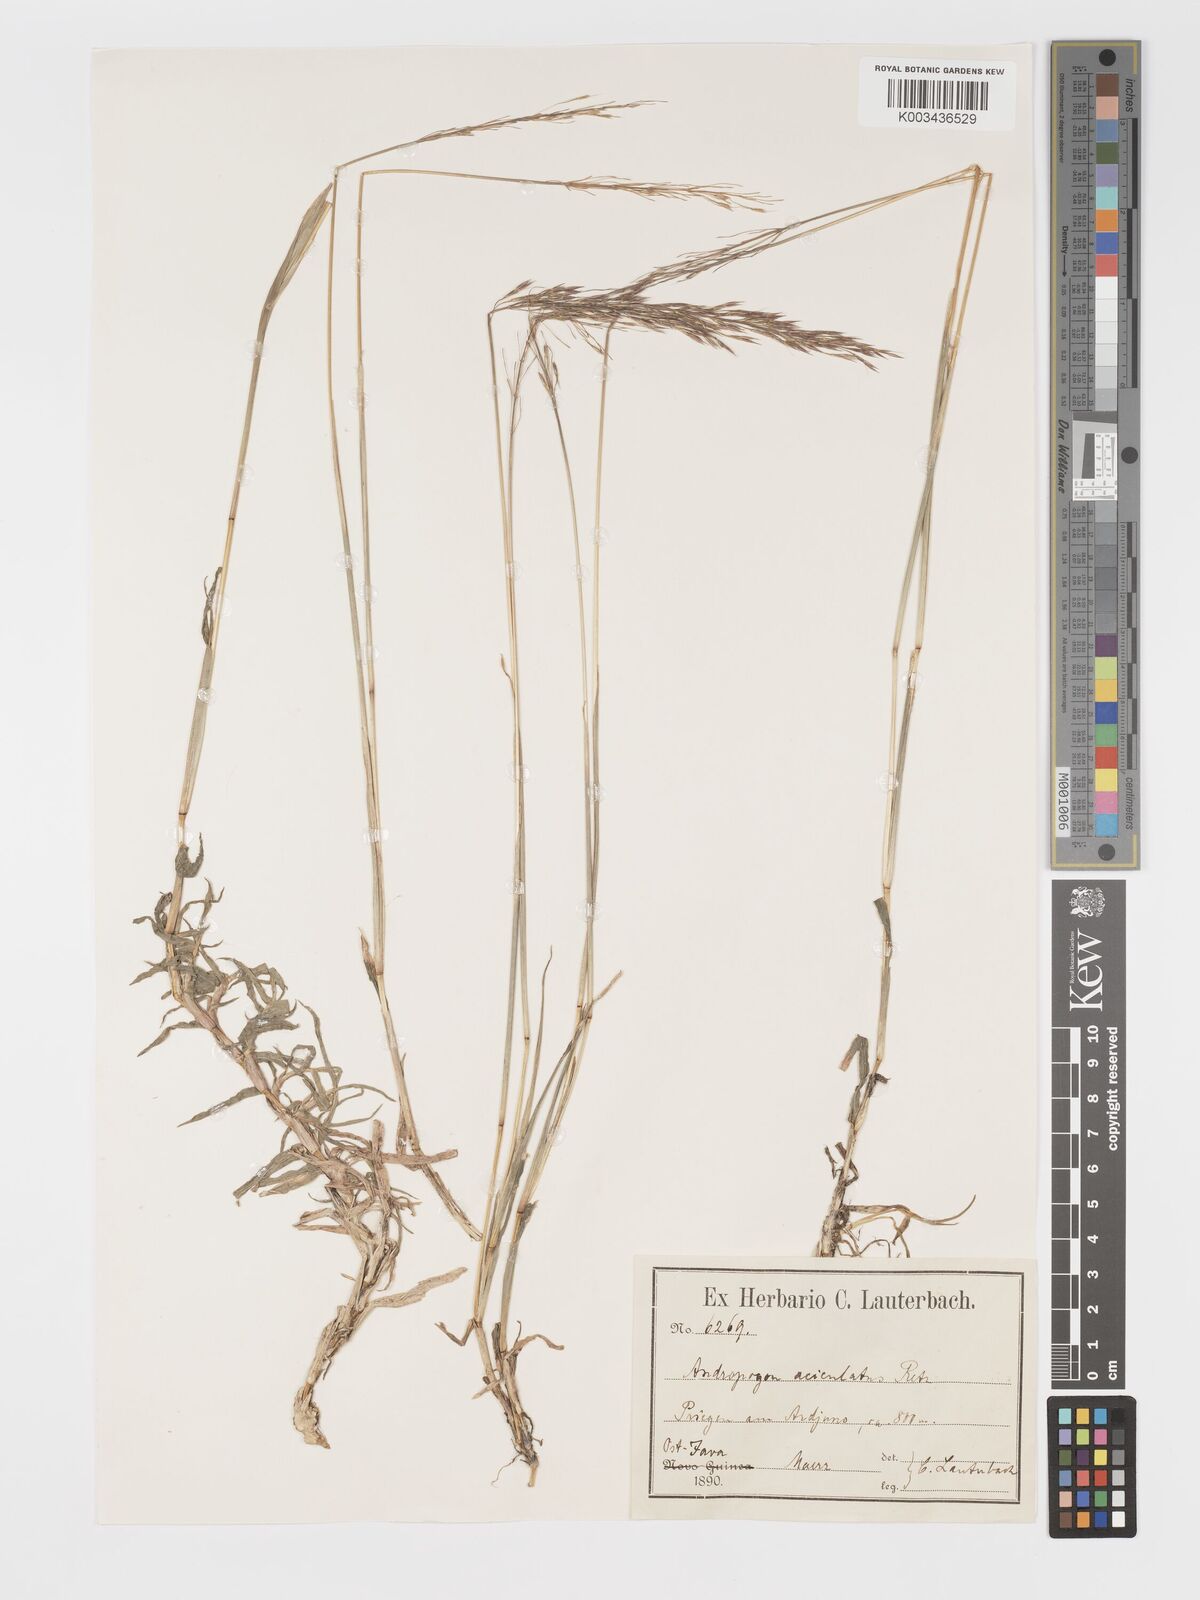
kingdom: Plantae
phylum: Tracheophyta
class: Liliopsida
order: Poales
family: Poaceae
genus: Chrysopogon
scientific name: Chrysopogon aciculatus
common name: Pilipiliula
